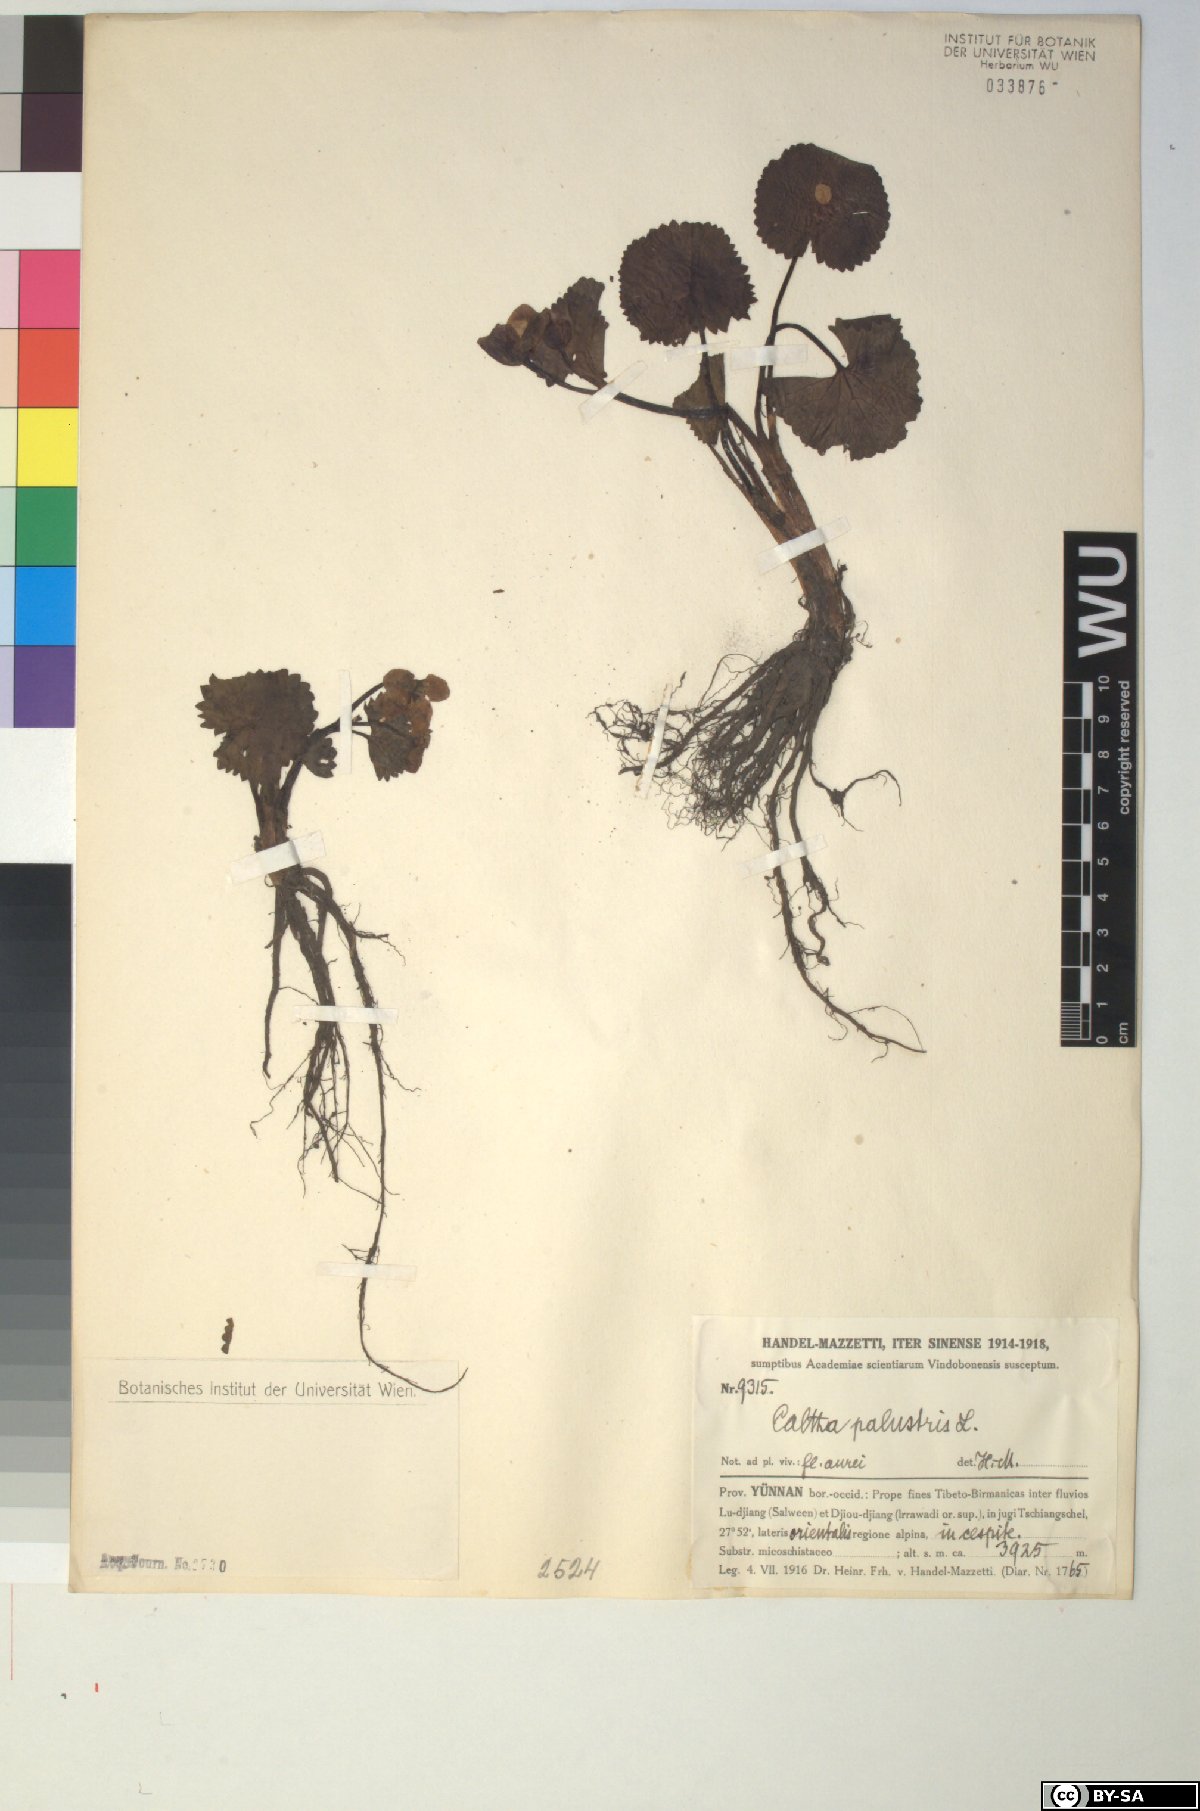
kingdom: Plantae
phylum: Tracheophyta
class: Magnoliopsida
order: Ranunculales
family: Ranunculaceae
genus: Caltha
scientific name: Caltha palustris
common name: Marsh marigold
